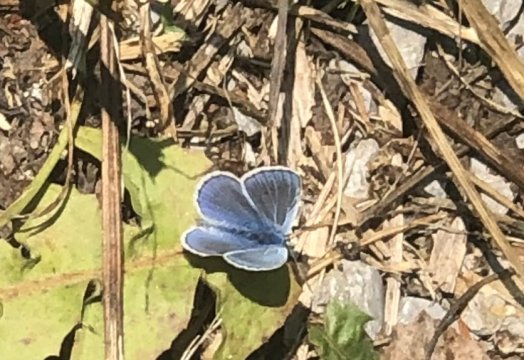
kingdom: Animalia
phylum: Arthropoda
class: Insecta
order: Lepidoptera
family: Lycaenidae
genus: Polyommatus
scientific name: Polyommatus icarus
